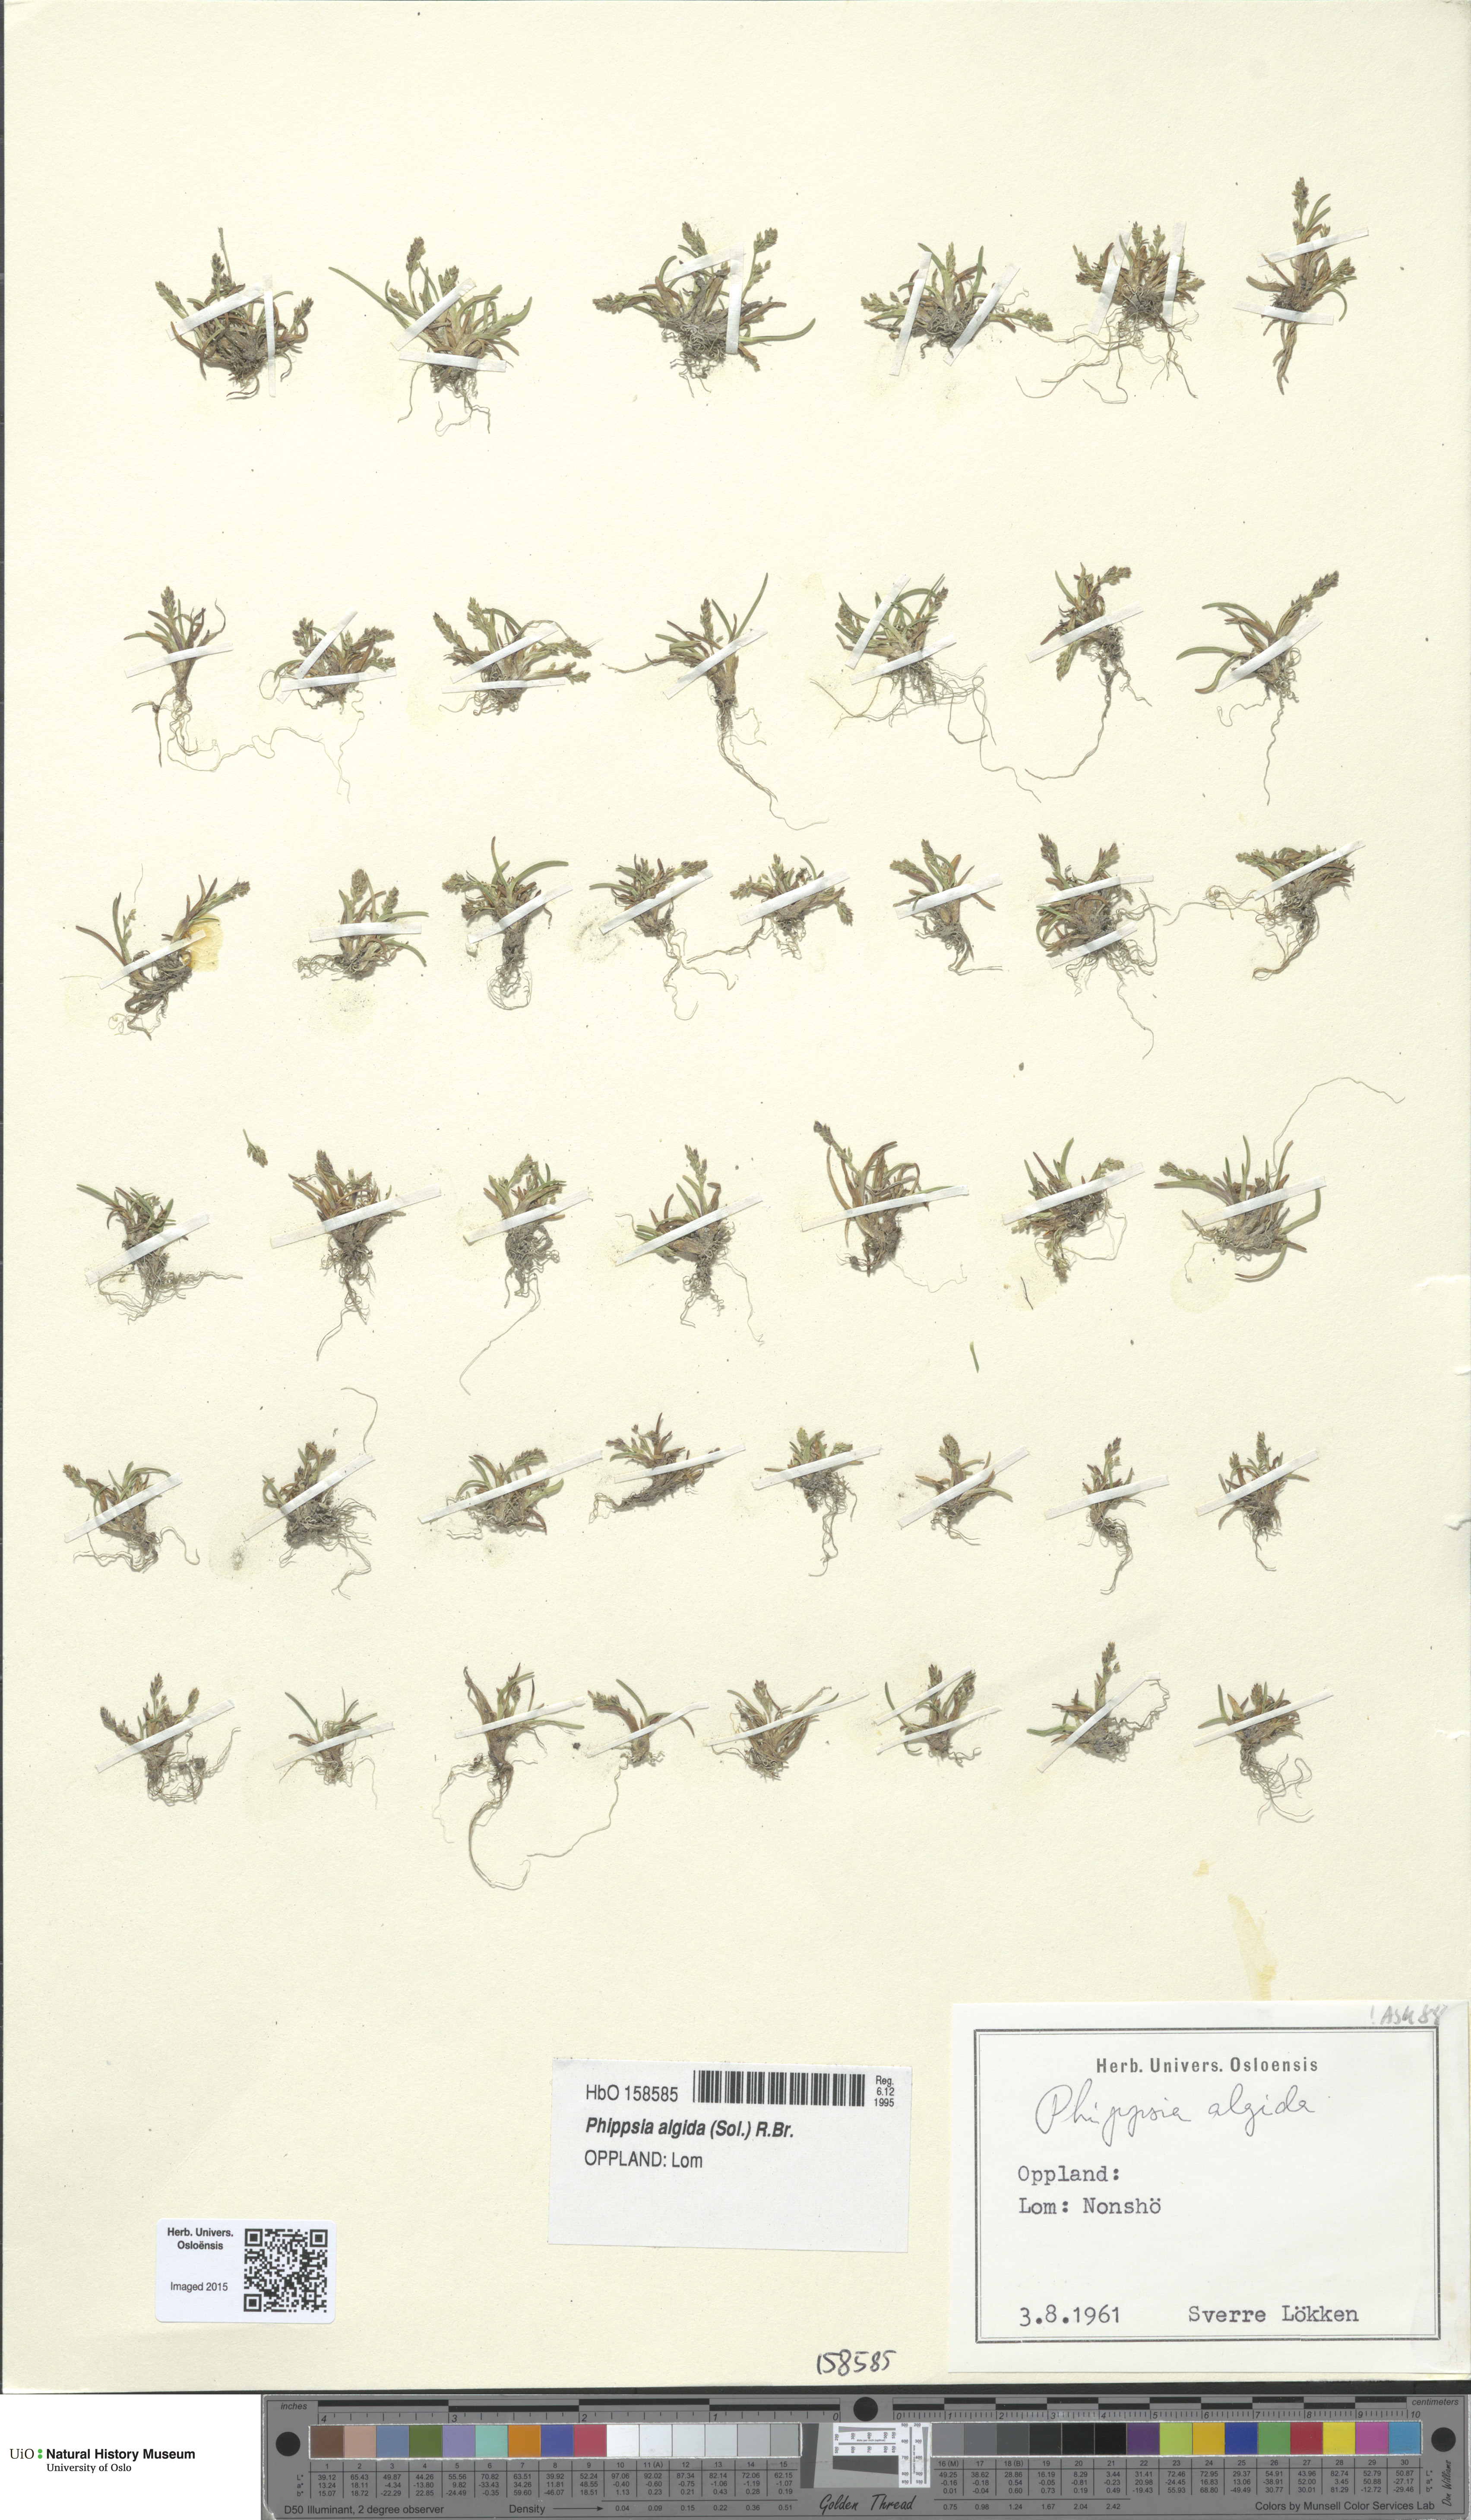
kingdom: Plantae
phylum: Tracheophyta
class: Liliopsida
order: Poales
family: Poaceae
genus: Phippsia
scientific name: Phippsia algida
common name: Ice grass
